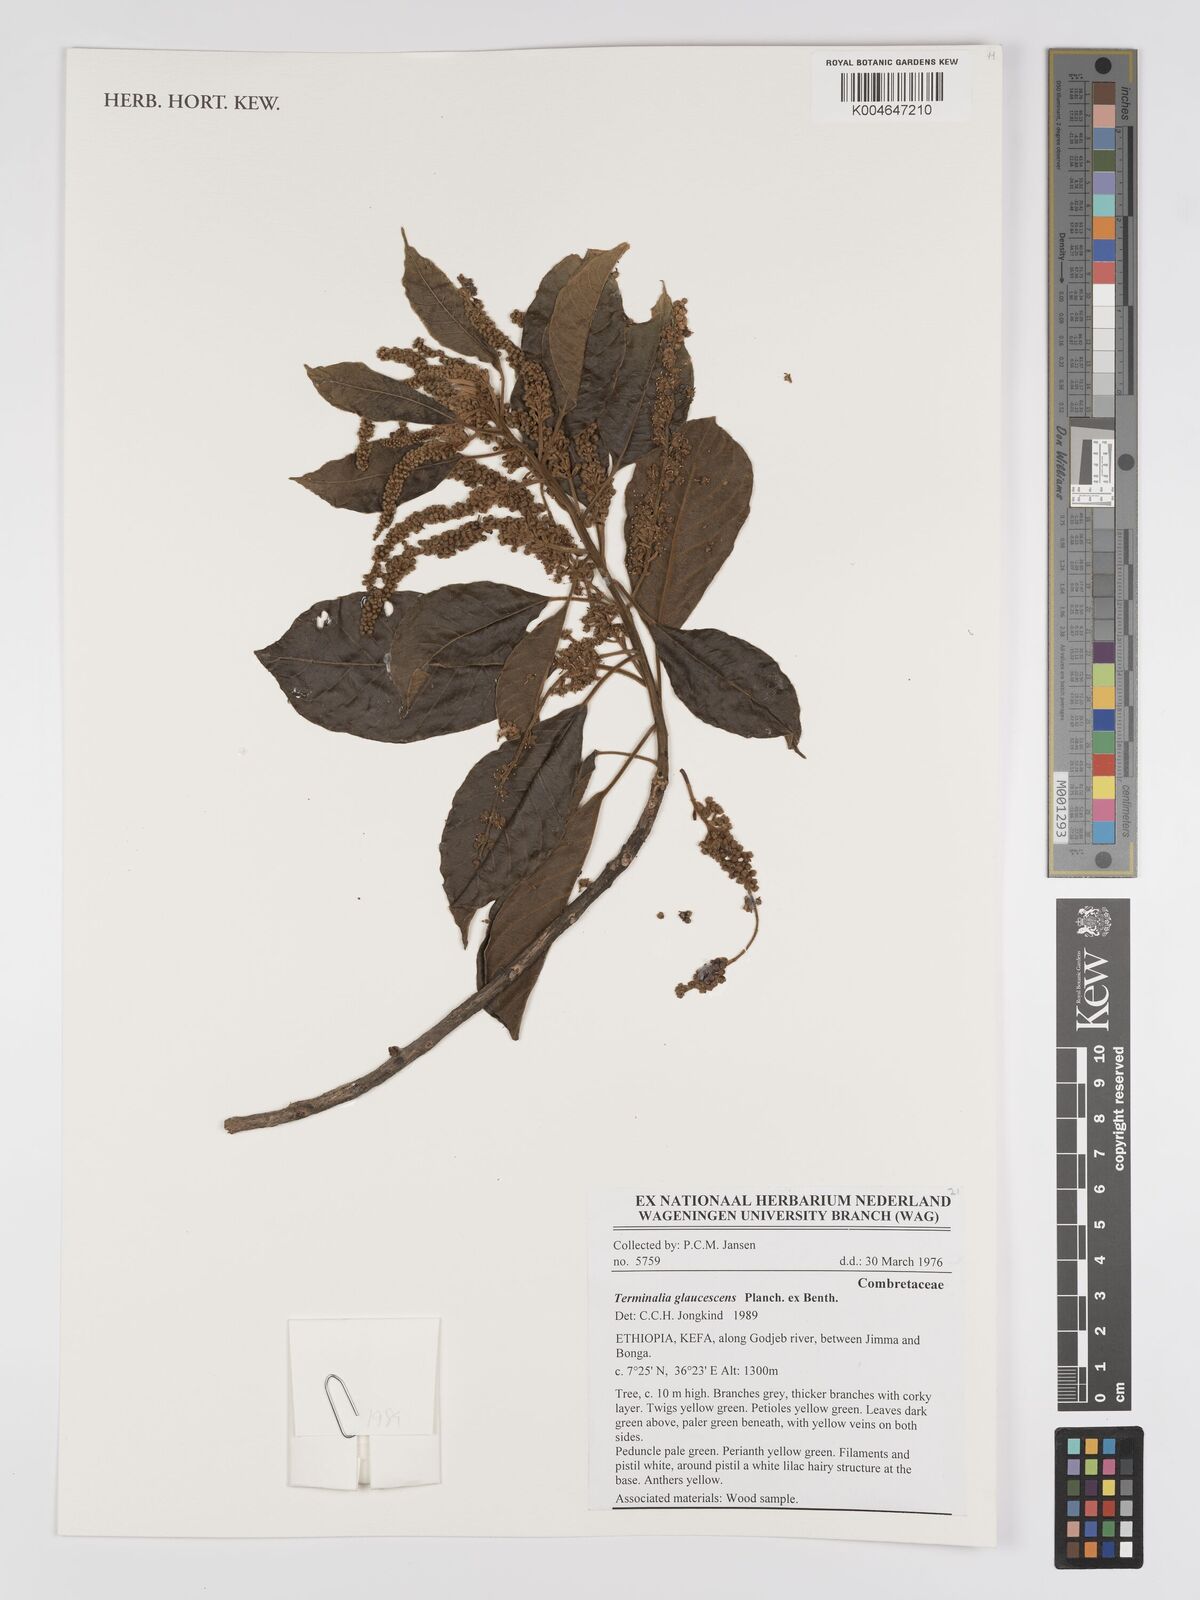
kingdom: Plantae
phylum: Tracheophyta
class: Magnoliopsida
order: Myrtales
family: Combretaceae
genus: Terminalia
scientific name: Terminalia schimperiana
